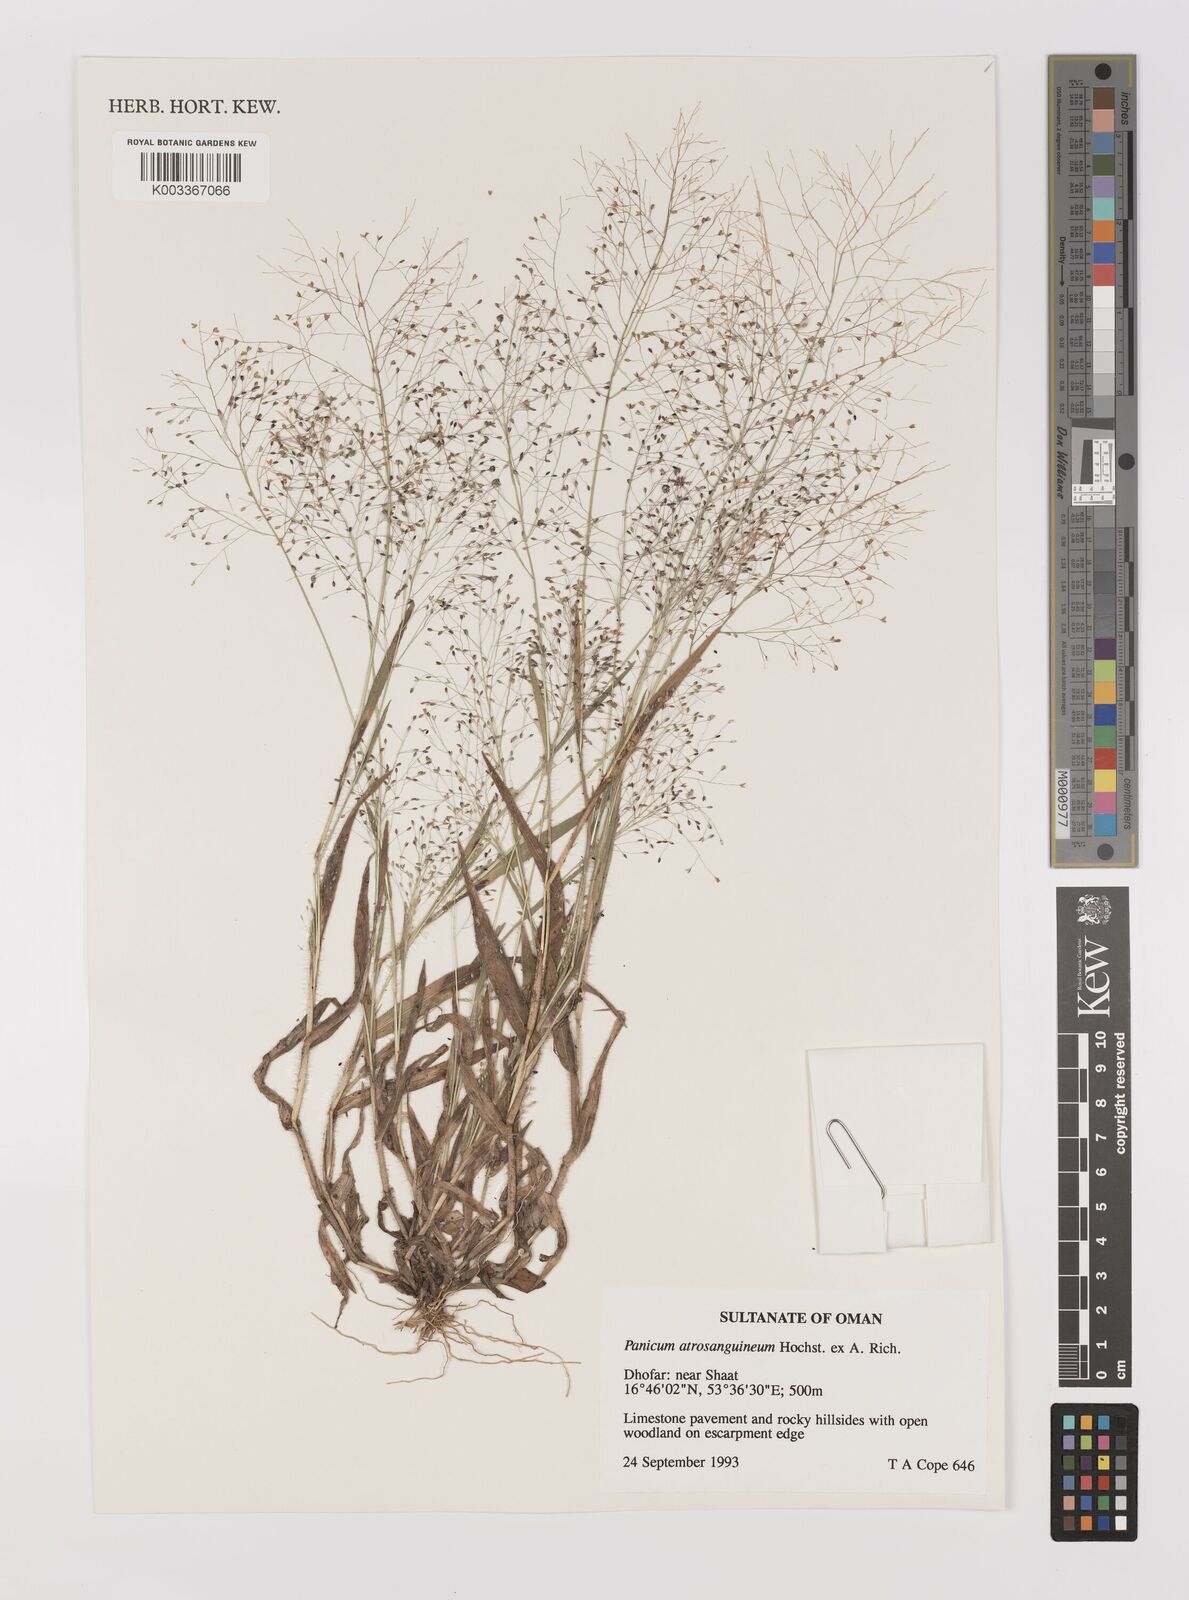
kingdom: Plantae
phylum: Tracheophyta
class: Liliopsida
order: Poales
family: Poaceae
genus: Panicum
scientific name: Panicum atrosanguineum
